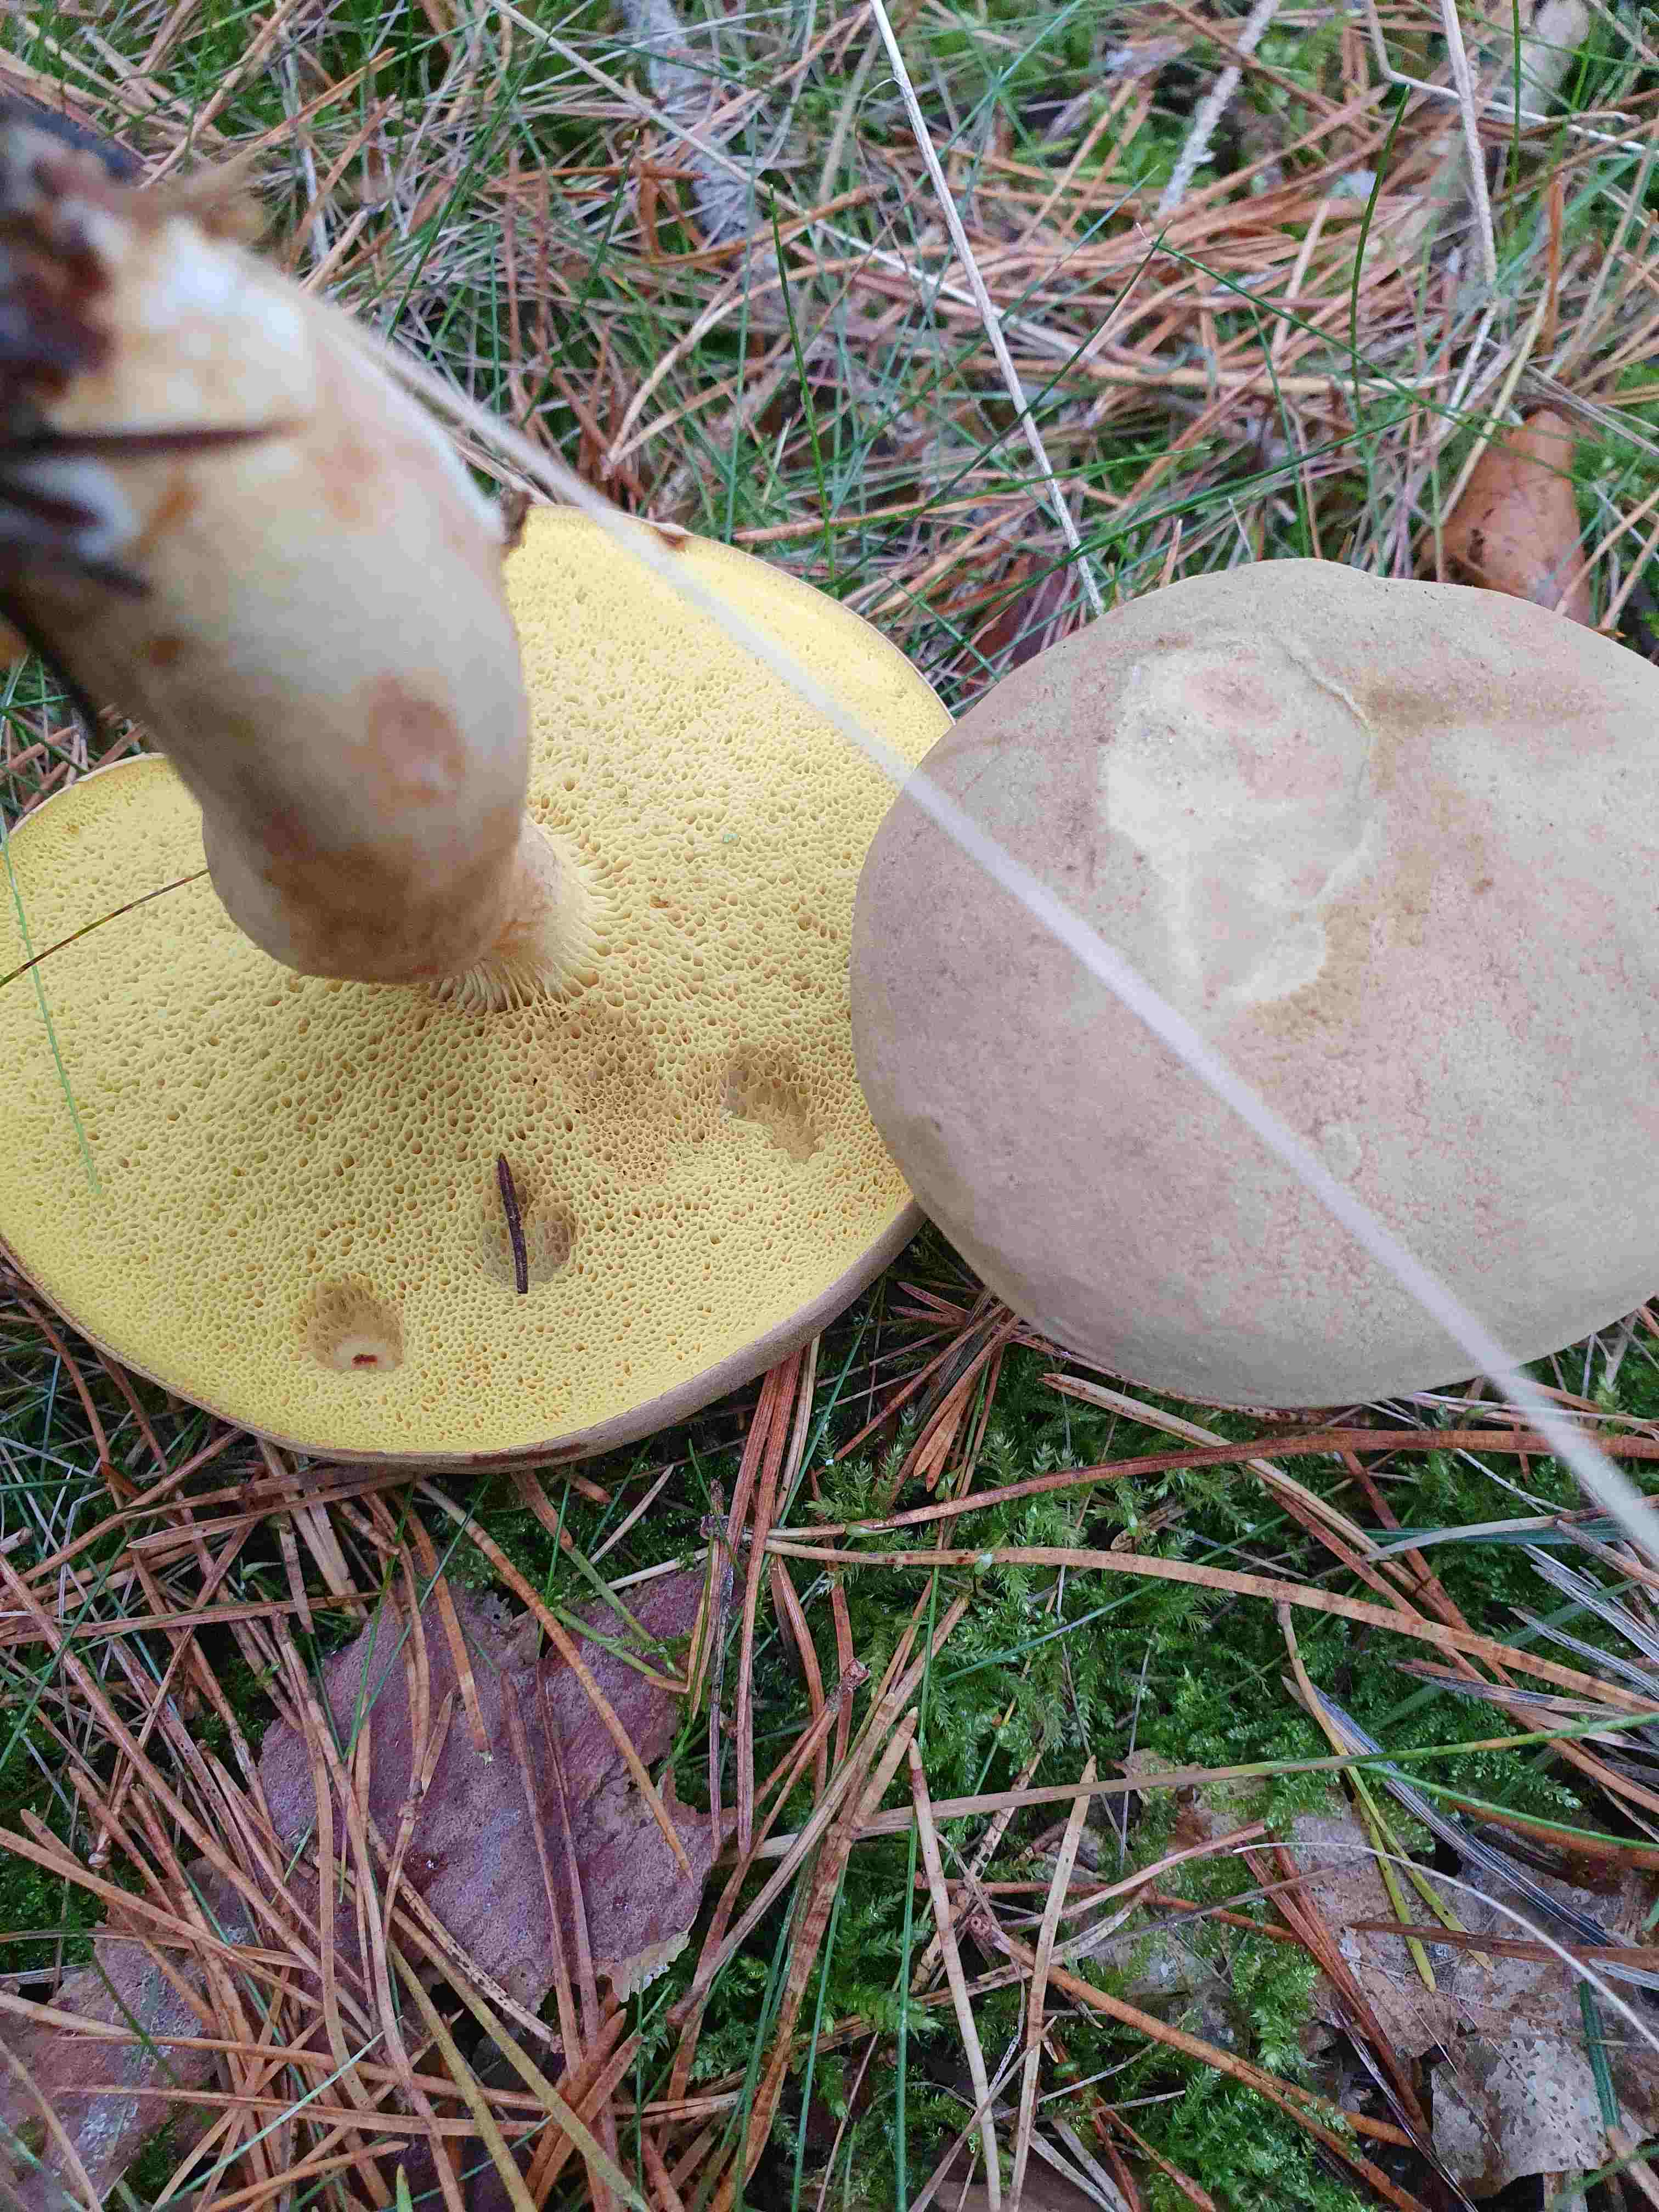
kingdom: Fungi
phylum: Basidiomycota
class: Agaricomycetes
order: Boletales
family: Boletaceae
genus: Xerocomus
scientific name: Xerocomus
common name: filtrørhat
